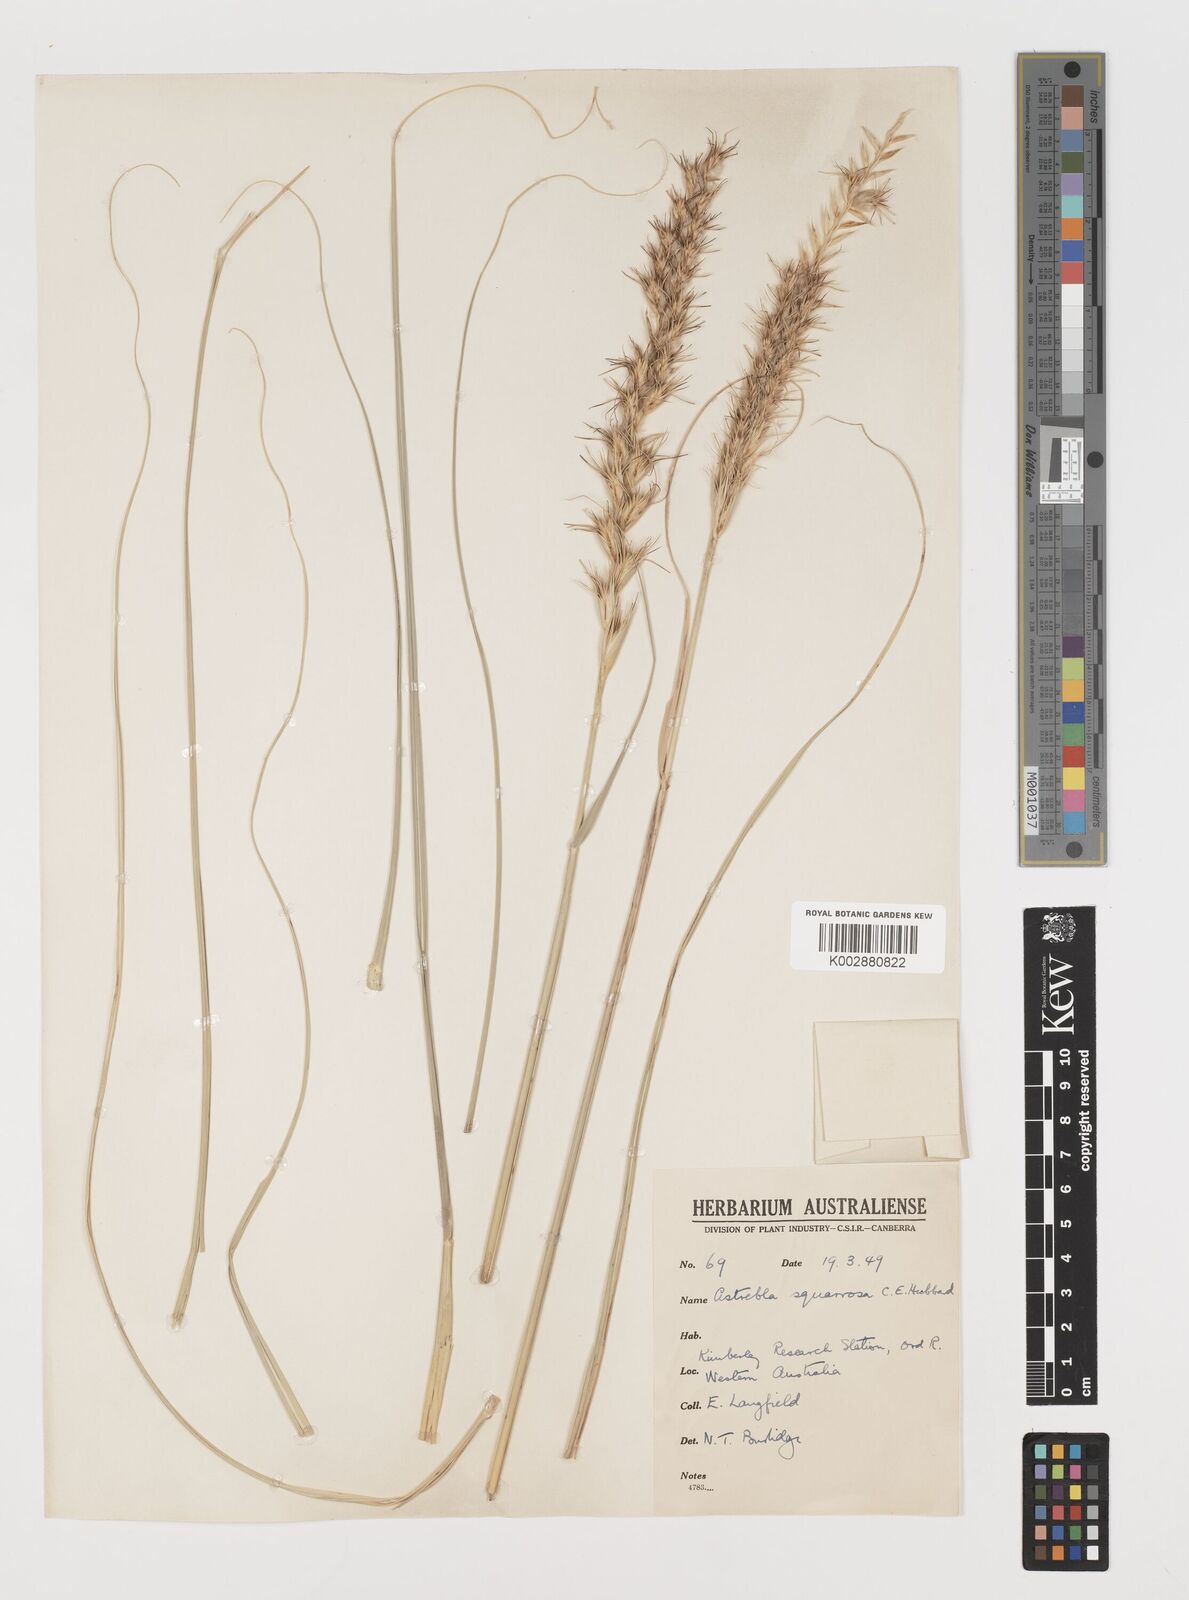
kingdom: Plantae
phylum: Tracheophyta
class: Liliopsida
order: Poales
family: Poaceae
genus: Astrebla
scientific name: Astrebla squarrosa
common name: Wheat-ear mitchell grass
